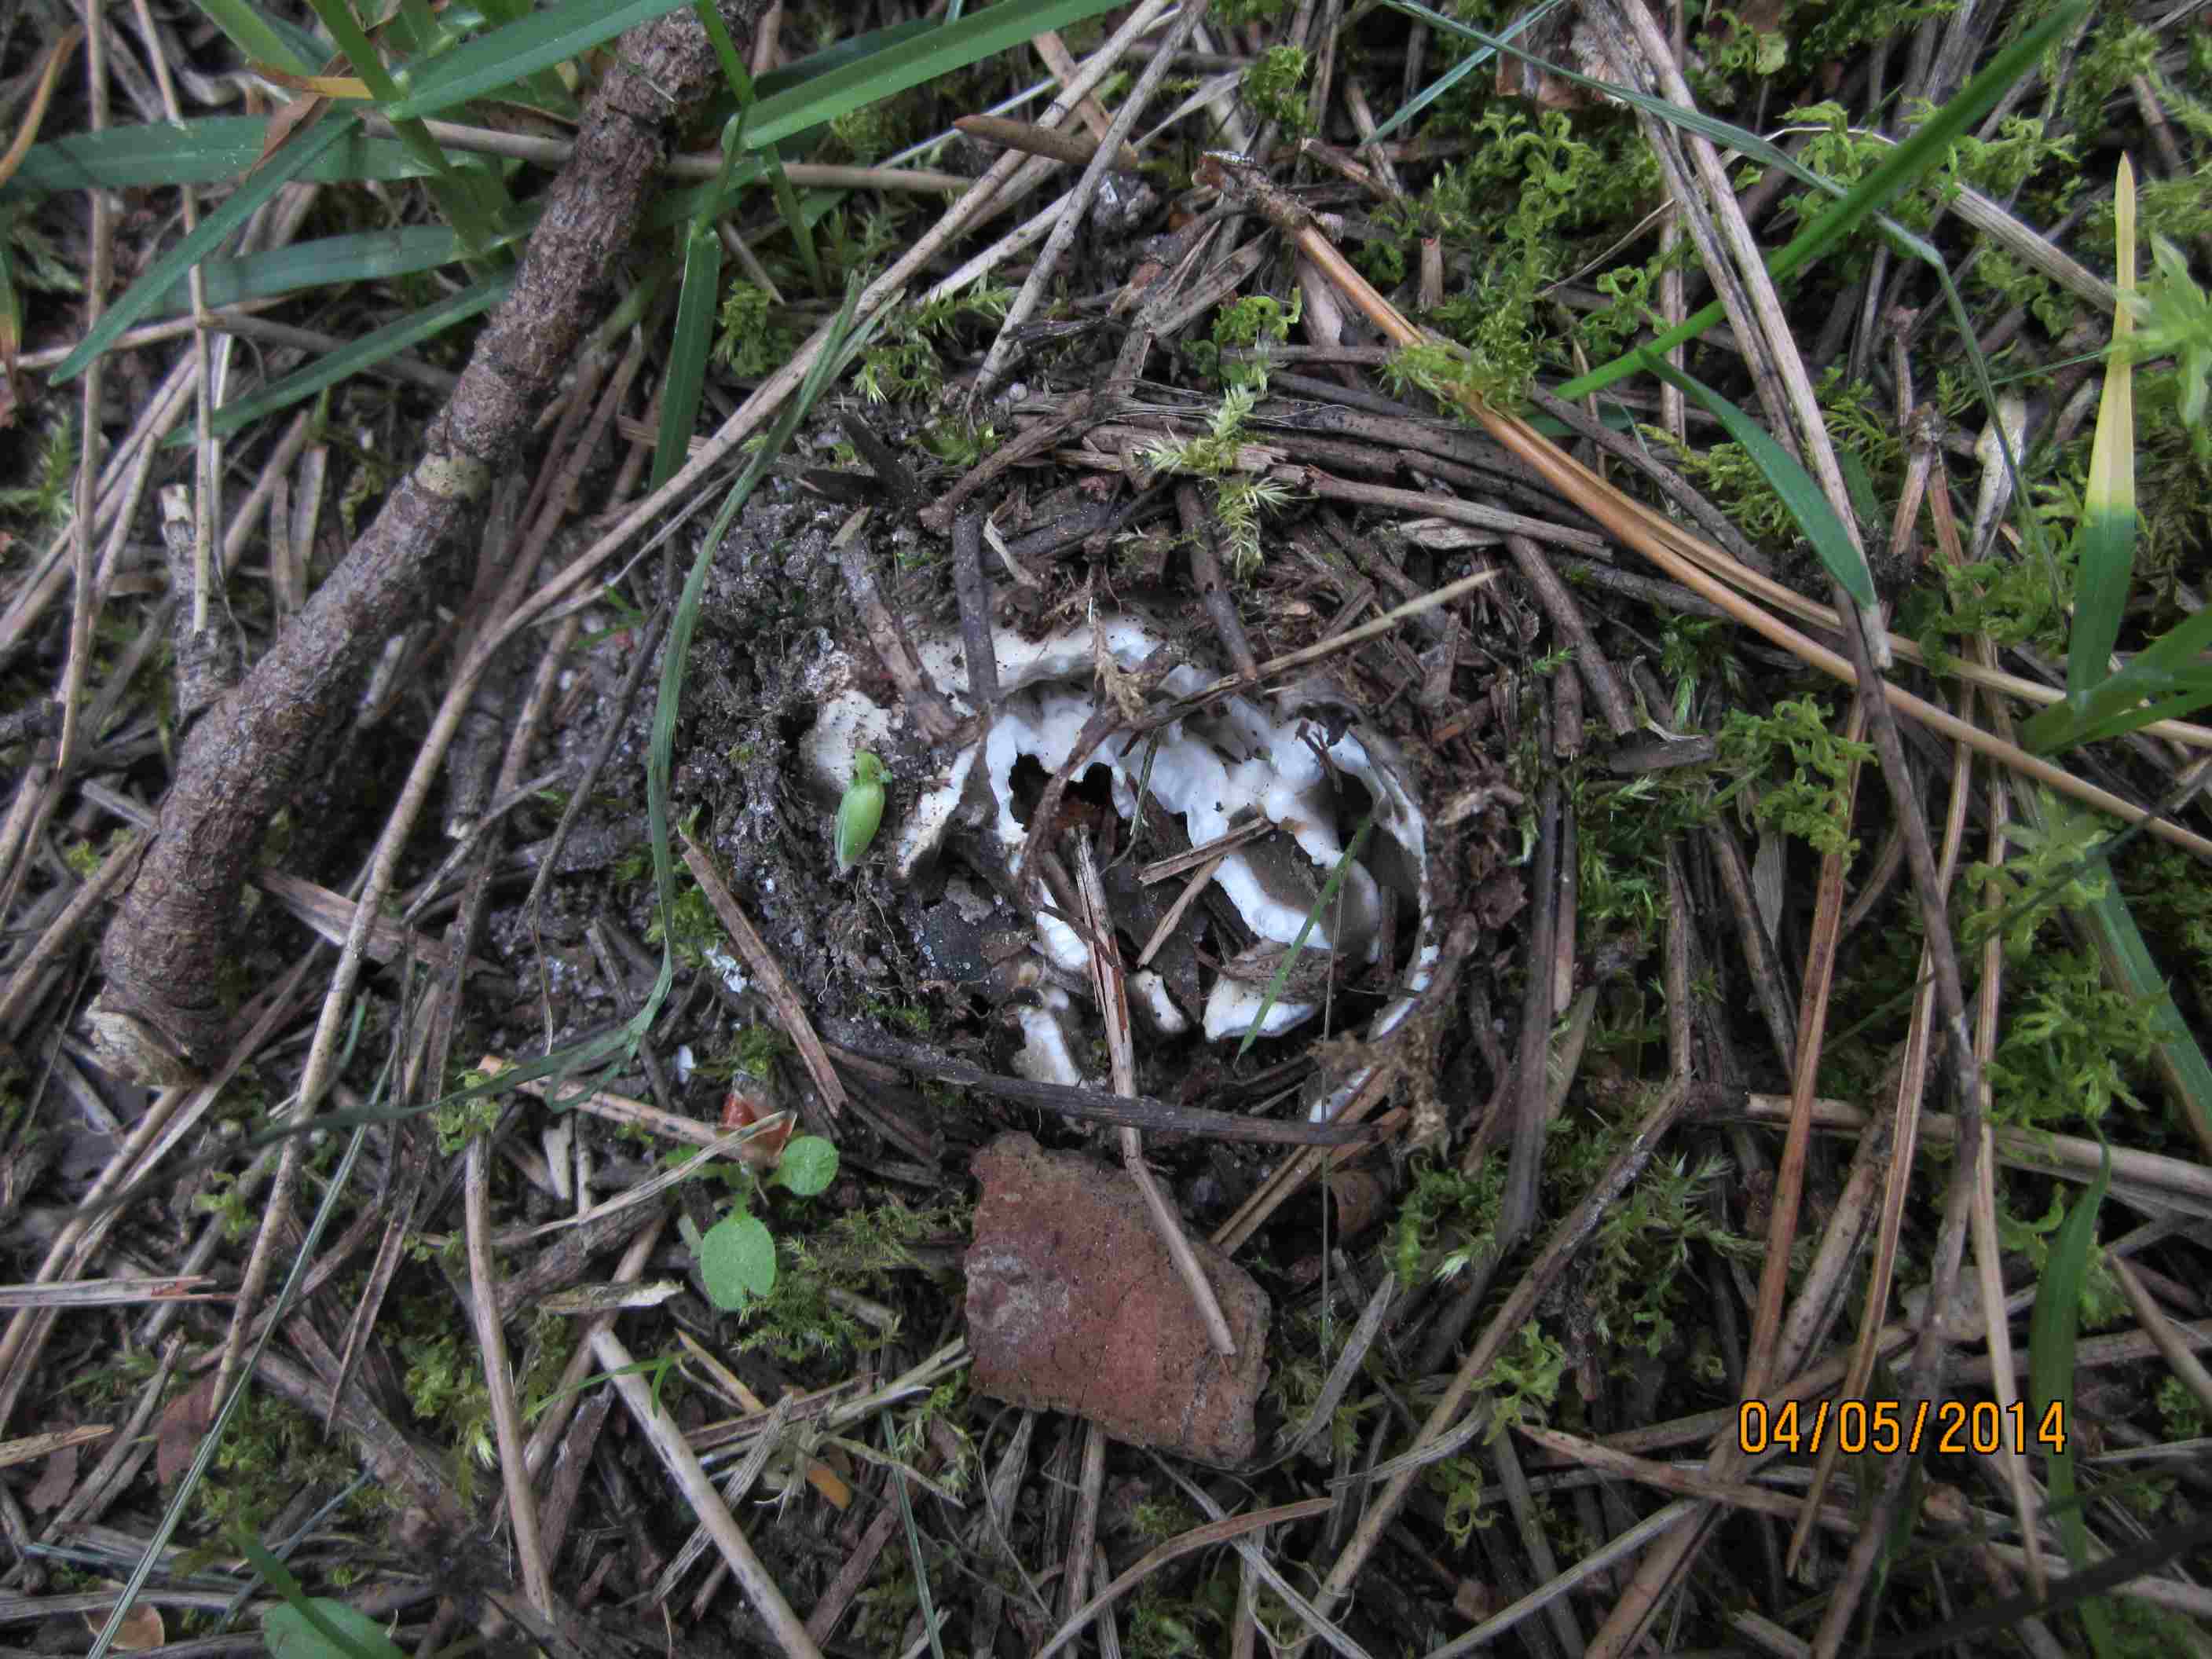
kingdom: Fungi
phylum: Ascomycota
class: Pezizomycetes
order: Pezizales
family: Helvellaceae
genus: Dissingia
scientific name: Dissingia leucomelaena
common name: sorthvid foldhat
